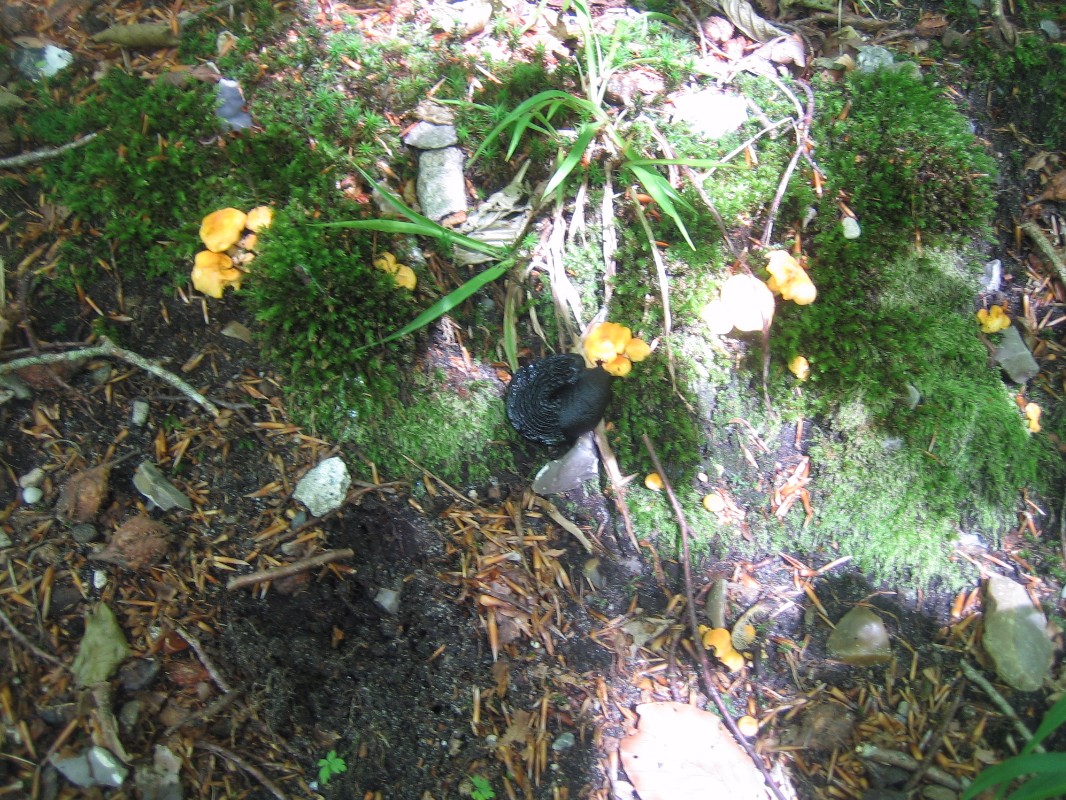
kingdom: Fungi
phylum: Basidiomycota
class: Agaricomycetes
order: Cantharellales
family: Hydnaceae
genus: Cantharellus
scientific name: Cantharellus cibarius
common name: almindelig kantarel
